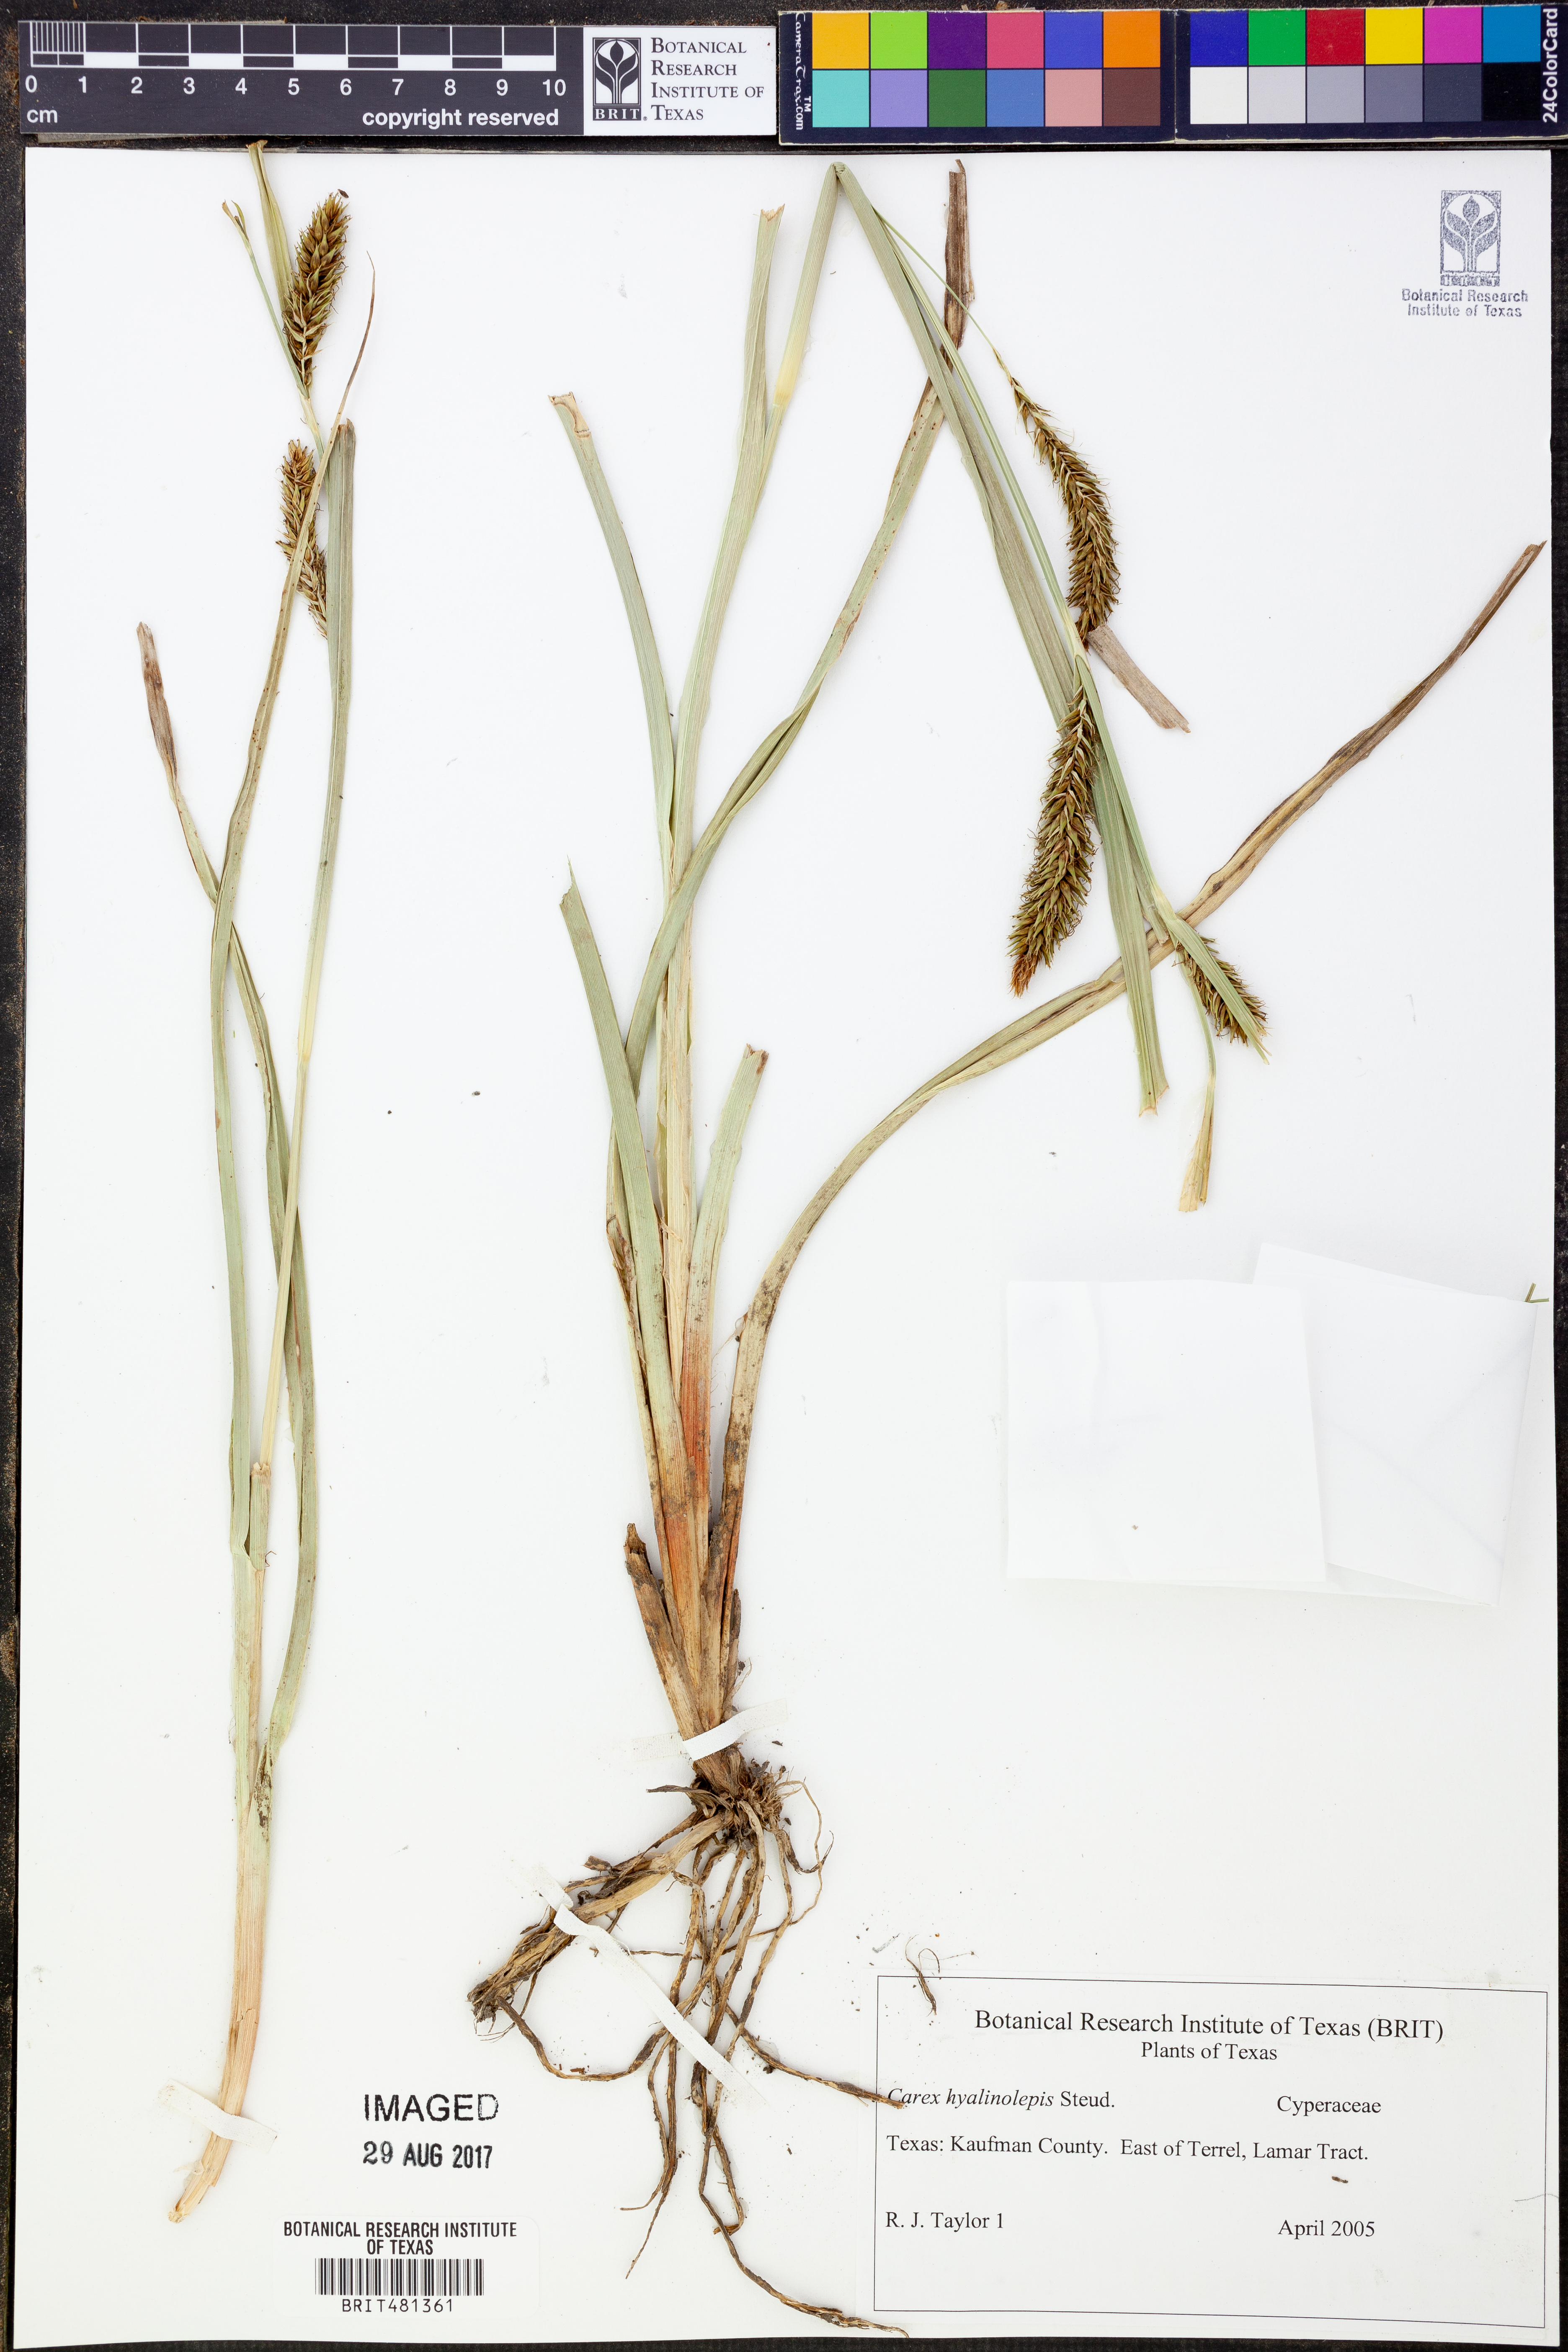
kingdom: Plantae
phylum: Tracheophyta
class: Liliopsida
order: Poales
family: Cyperaceae
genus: Carex
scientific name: Carex hyalinolepis
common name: Shoreline sedge
